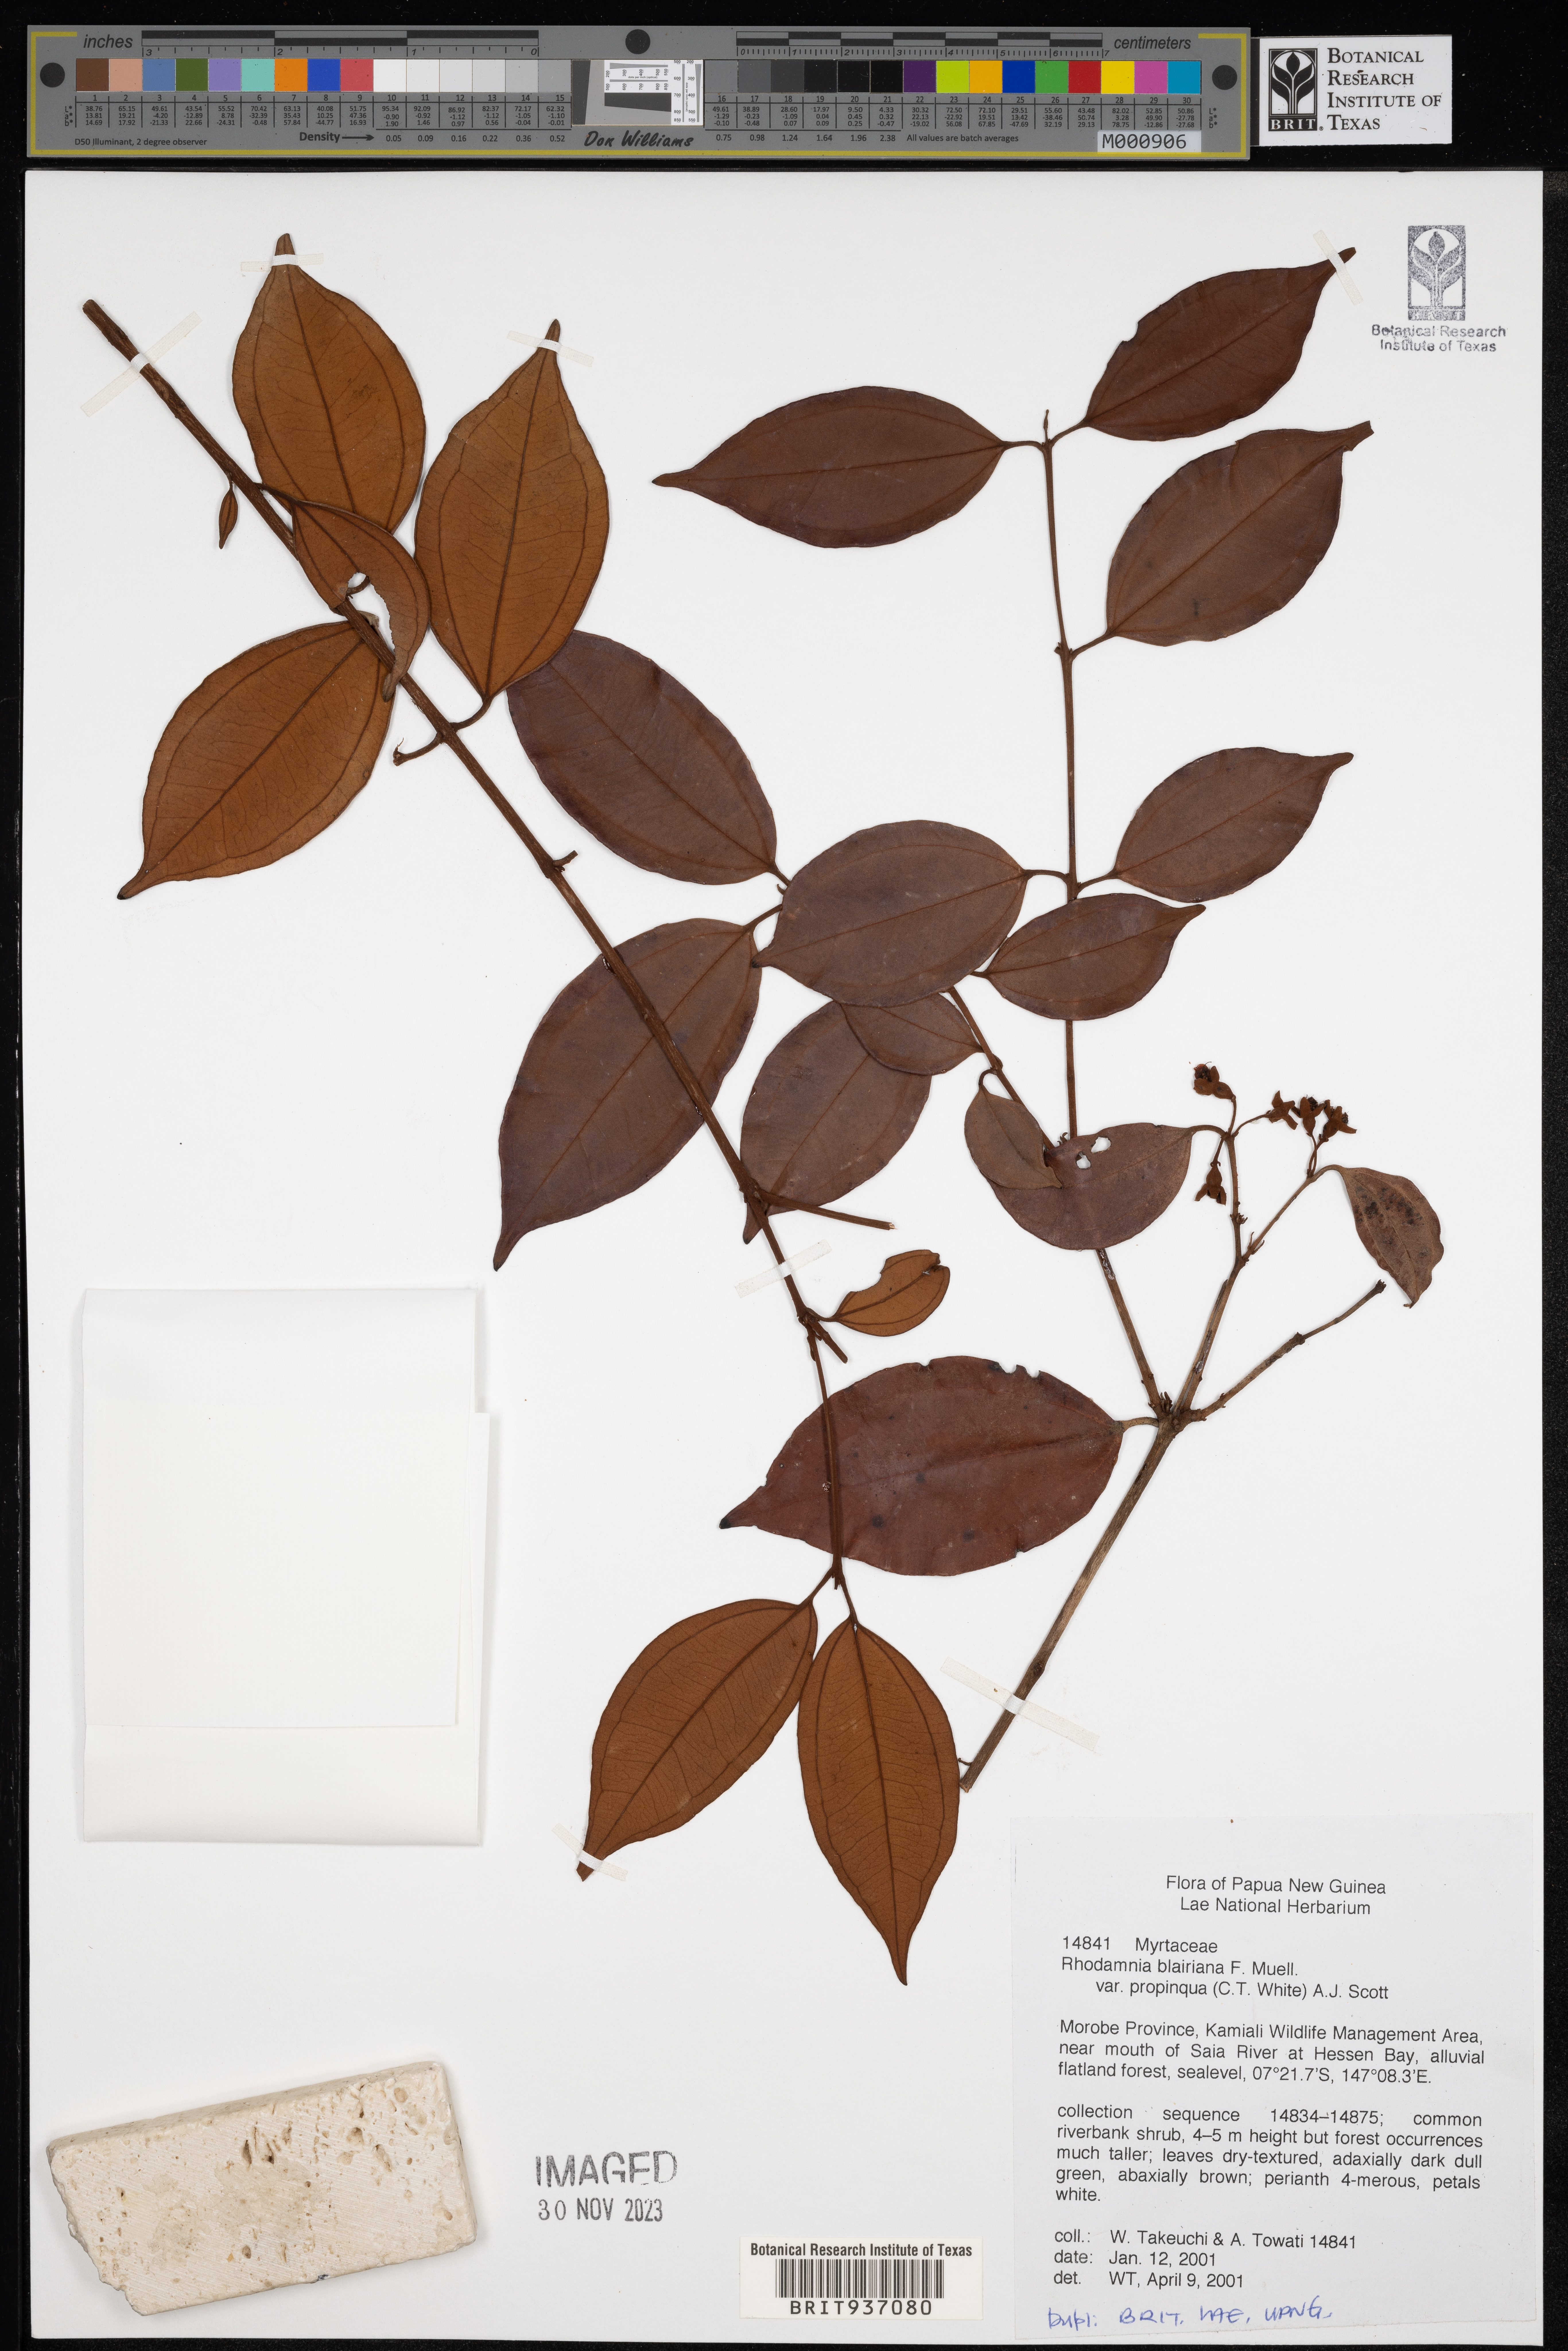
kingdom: Plantae
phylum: Tracheophyta
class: Magnoliopsida
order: Myrtales
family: Myrtaceae
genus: Rhodamnia
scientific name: Rhodamnia
